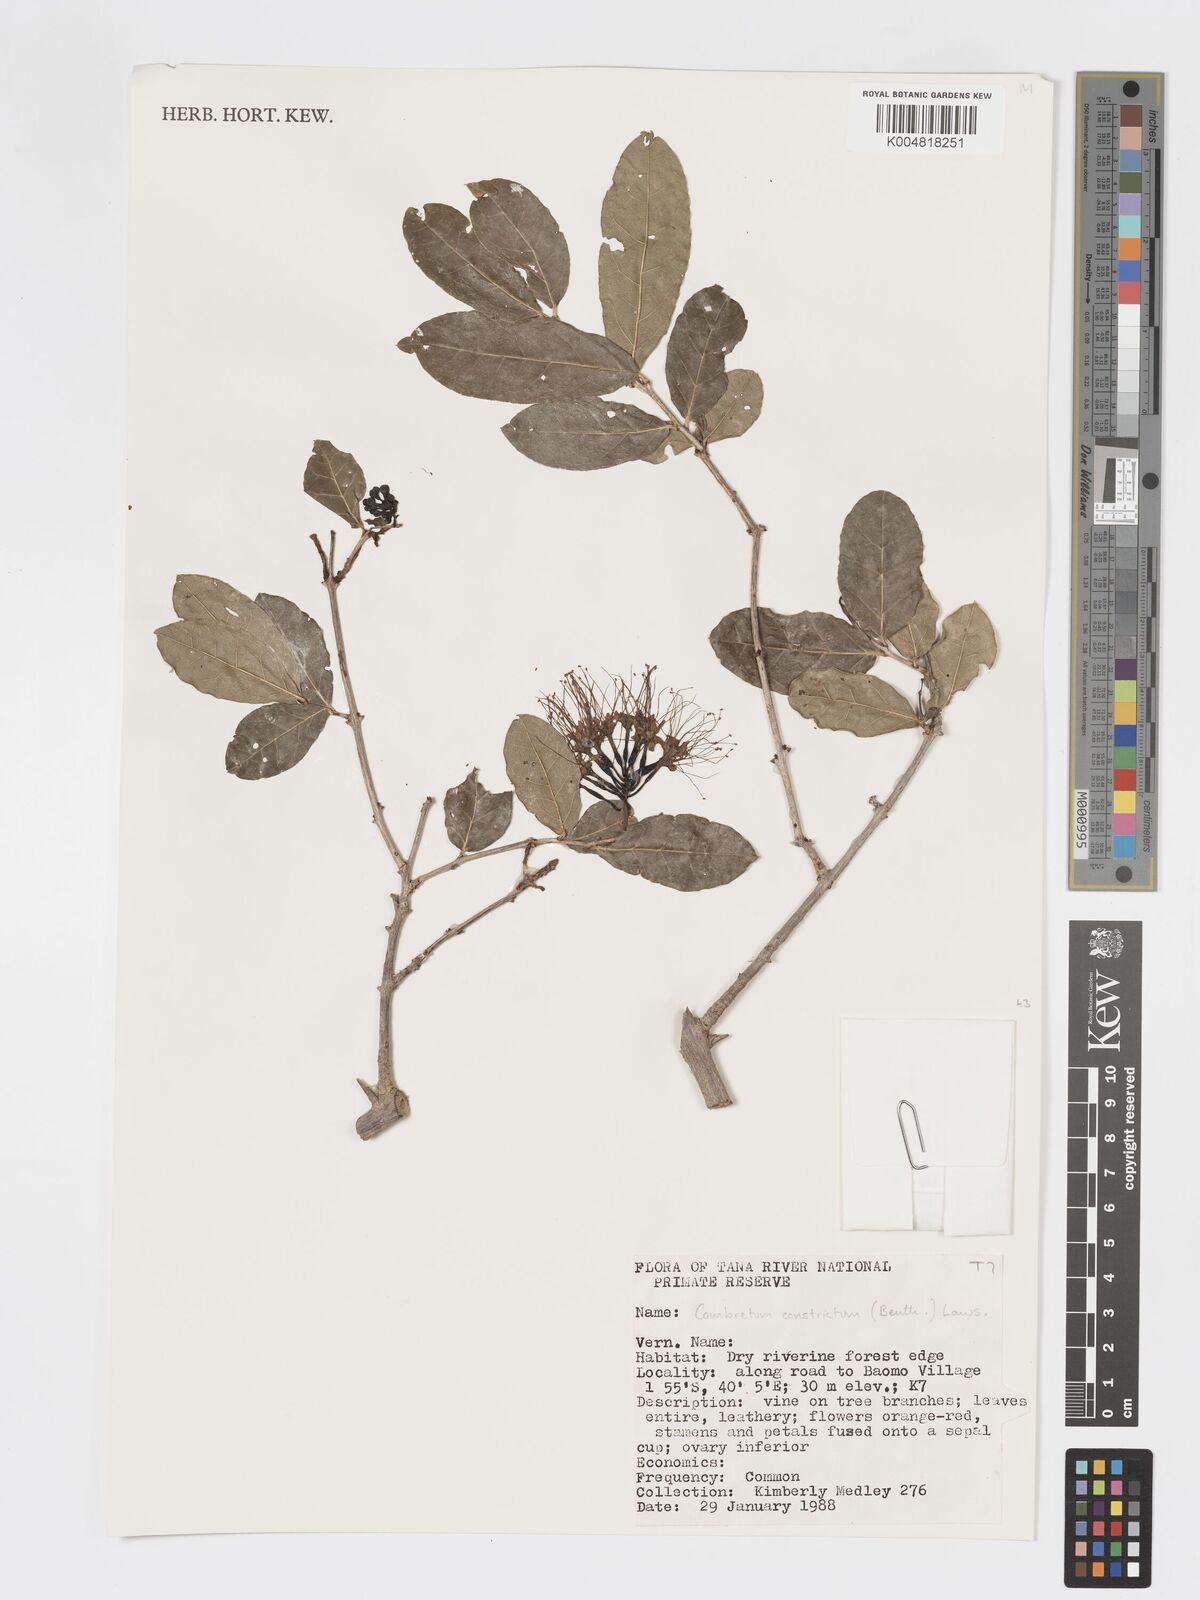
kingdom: Plantae
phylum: Tracheophyta
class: Magnoliopsida
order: Myrtales
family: Combretaceae
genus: Combretum
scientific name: Combretum constrictum
